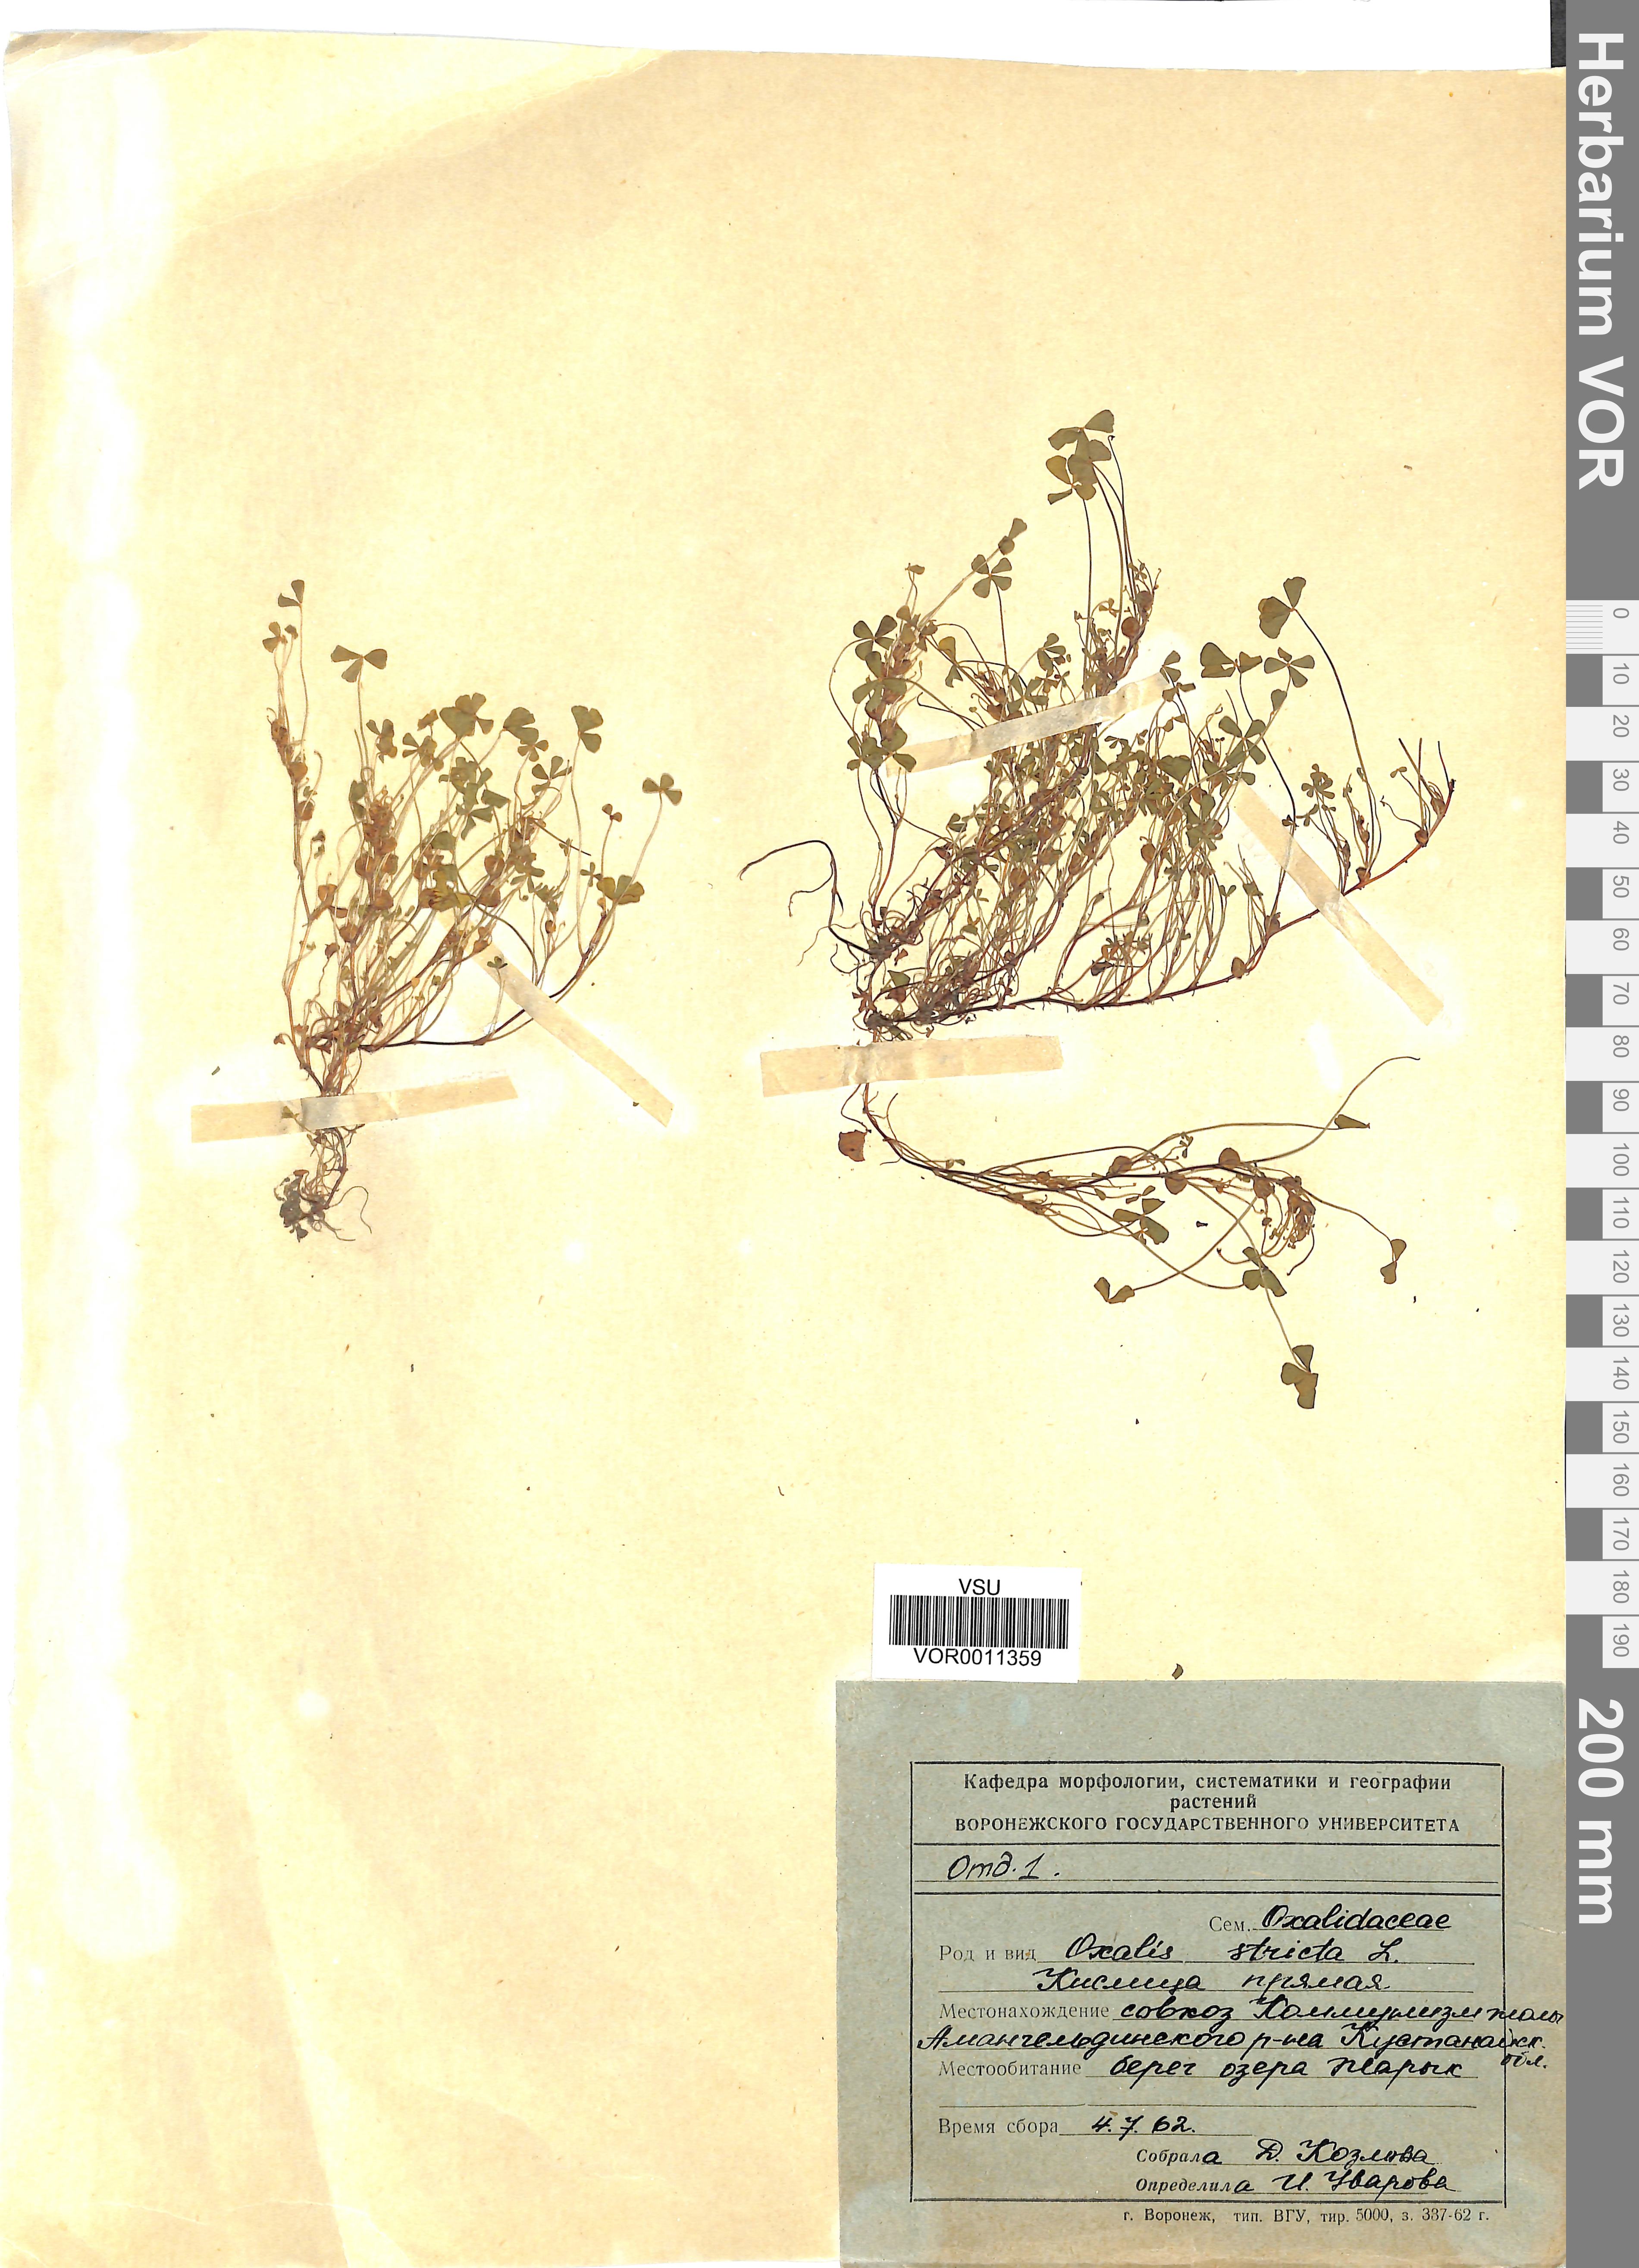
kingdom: Plantae
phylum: Tracheophyta
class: Magnoliopsida
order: Oxalidales
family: Oxalidaceae
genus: Oxalis
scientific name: Oxalis stricta
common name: Upright yellow-sorrel
